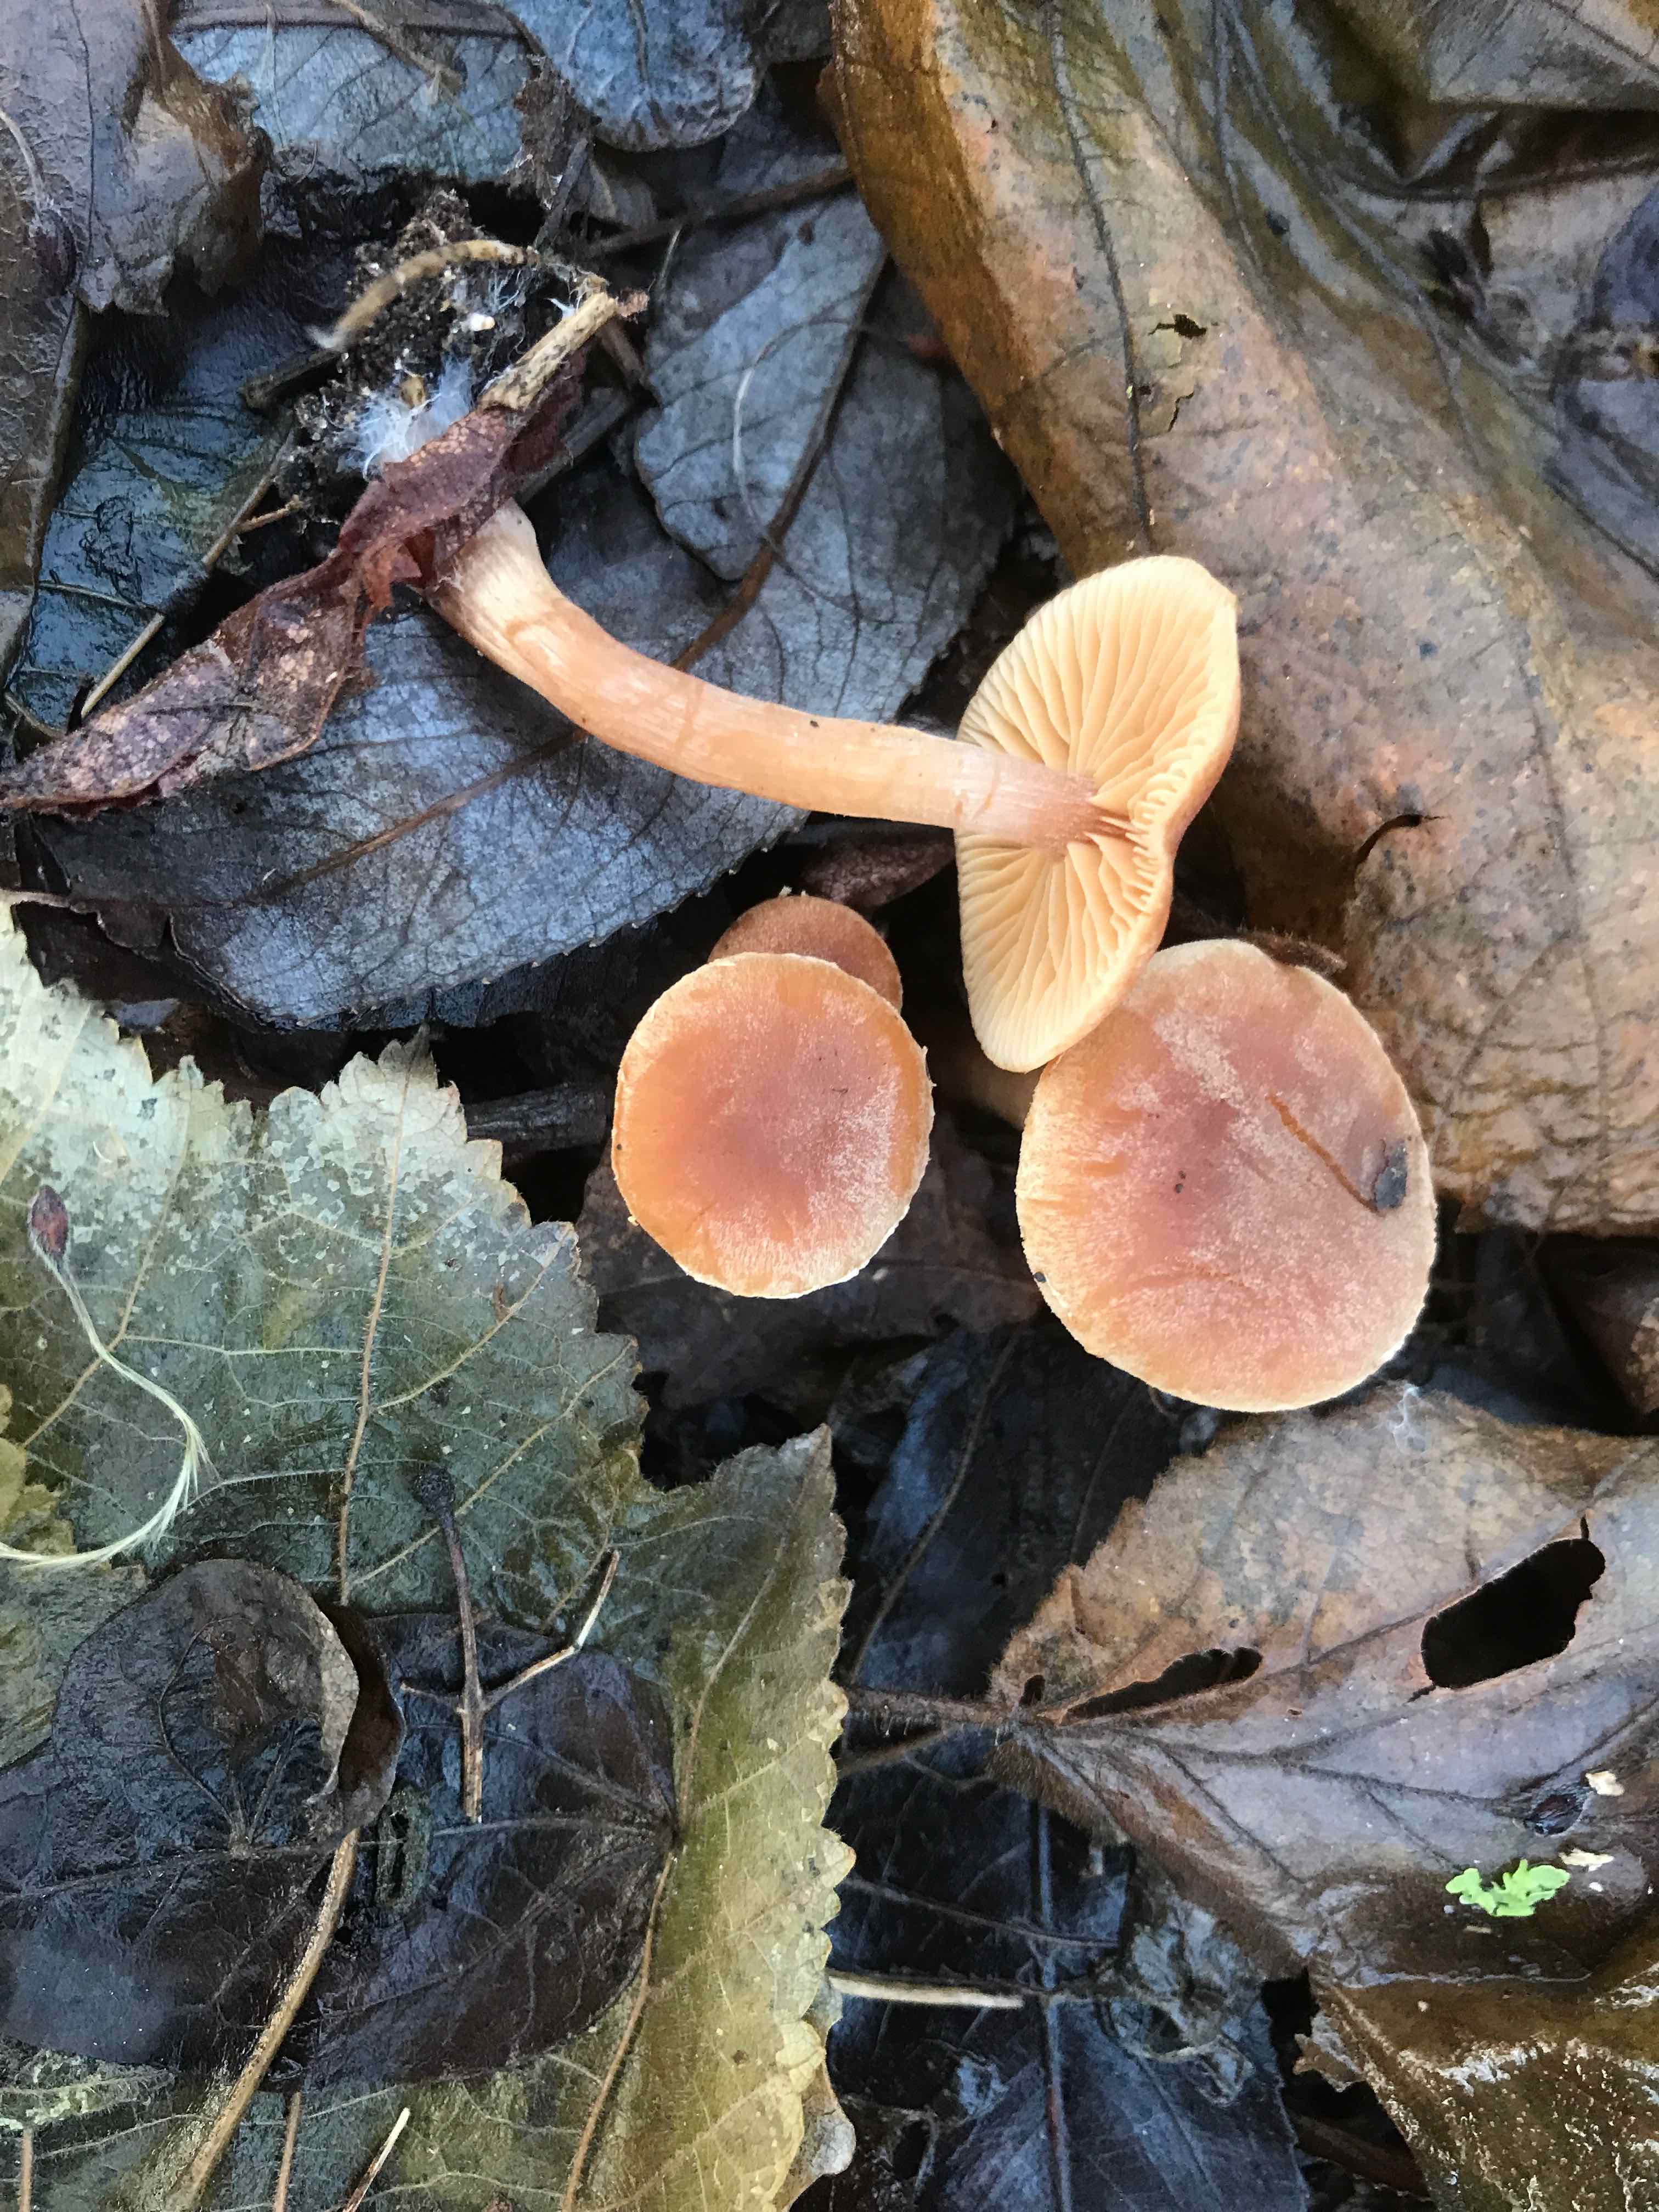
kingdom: Fungi
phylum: Basidiomycota
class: Agaricomycetes
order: Agaricales
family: Tubariaceae
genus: Tubaria
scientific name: Tubaria furfuracea
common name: kliddet fnughat
